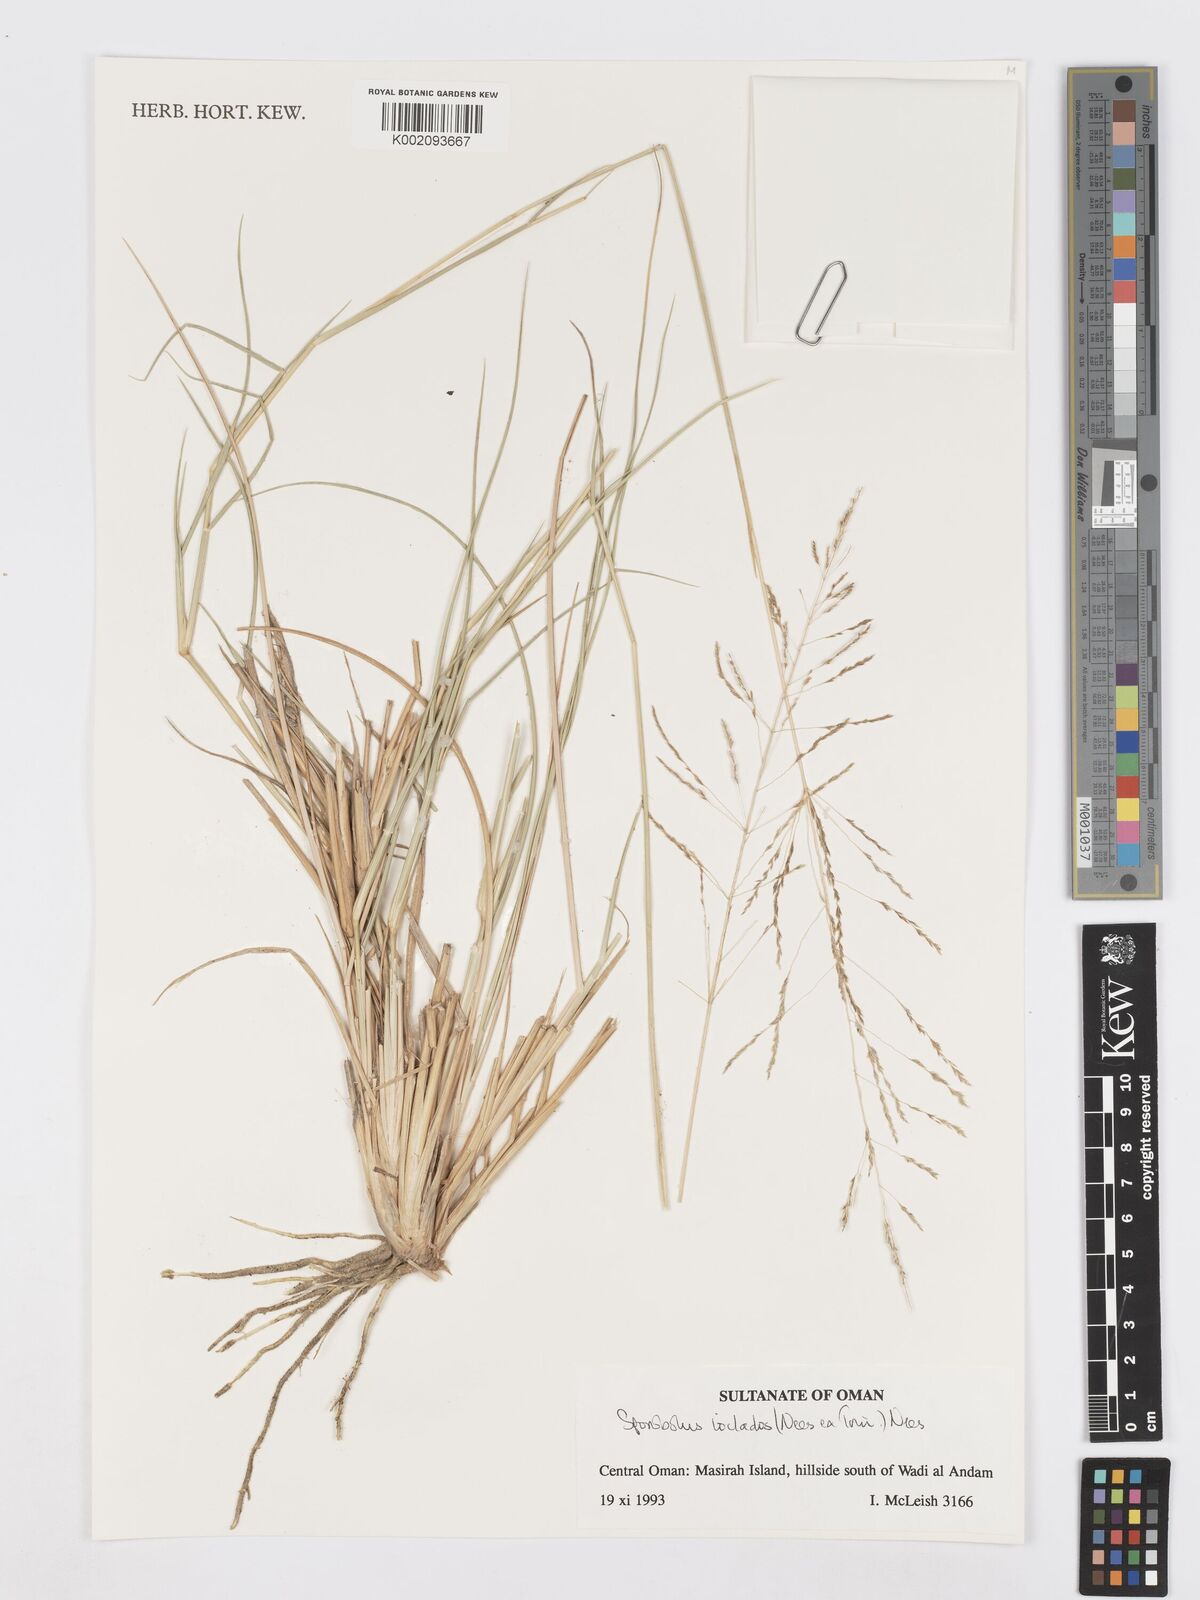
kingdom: Plantae
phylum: Tracheophyta
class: Liliopsida
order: Poales
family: Poaceae
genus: Sporobolus
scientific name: Sporobolus ioclados
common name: Pan dropseed
